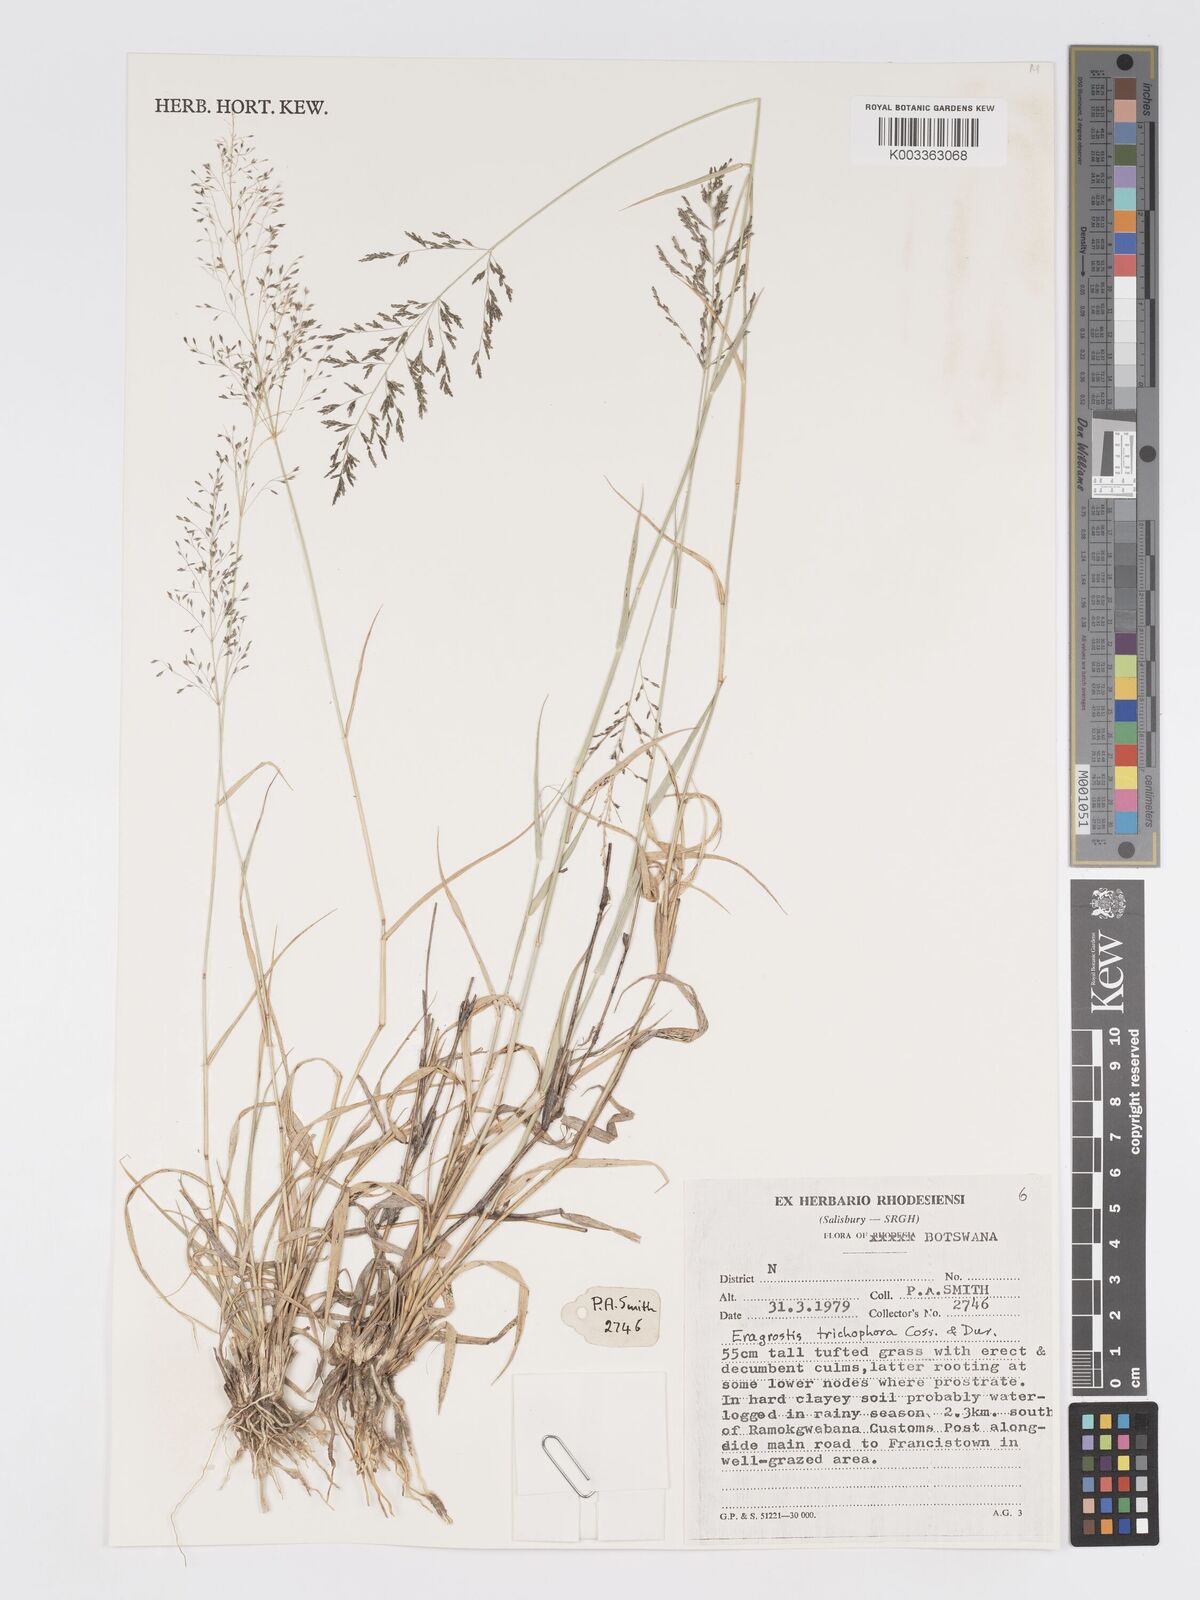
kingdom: Plantae
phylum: Tracheophyta
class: Liliopsida
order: Poales
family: Poaceae
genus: Eragrostis
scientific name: Eragrostis cylindriflora
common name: Cylinderflower lovegrass
